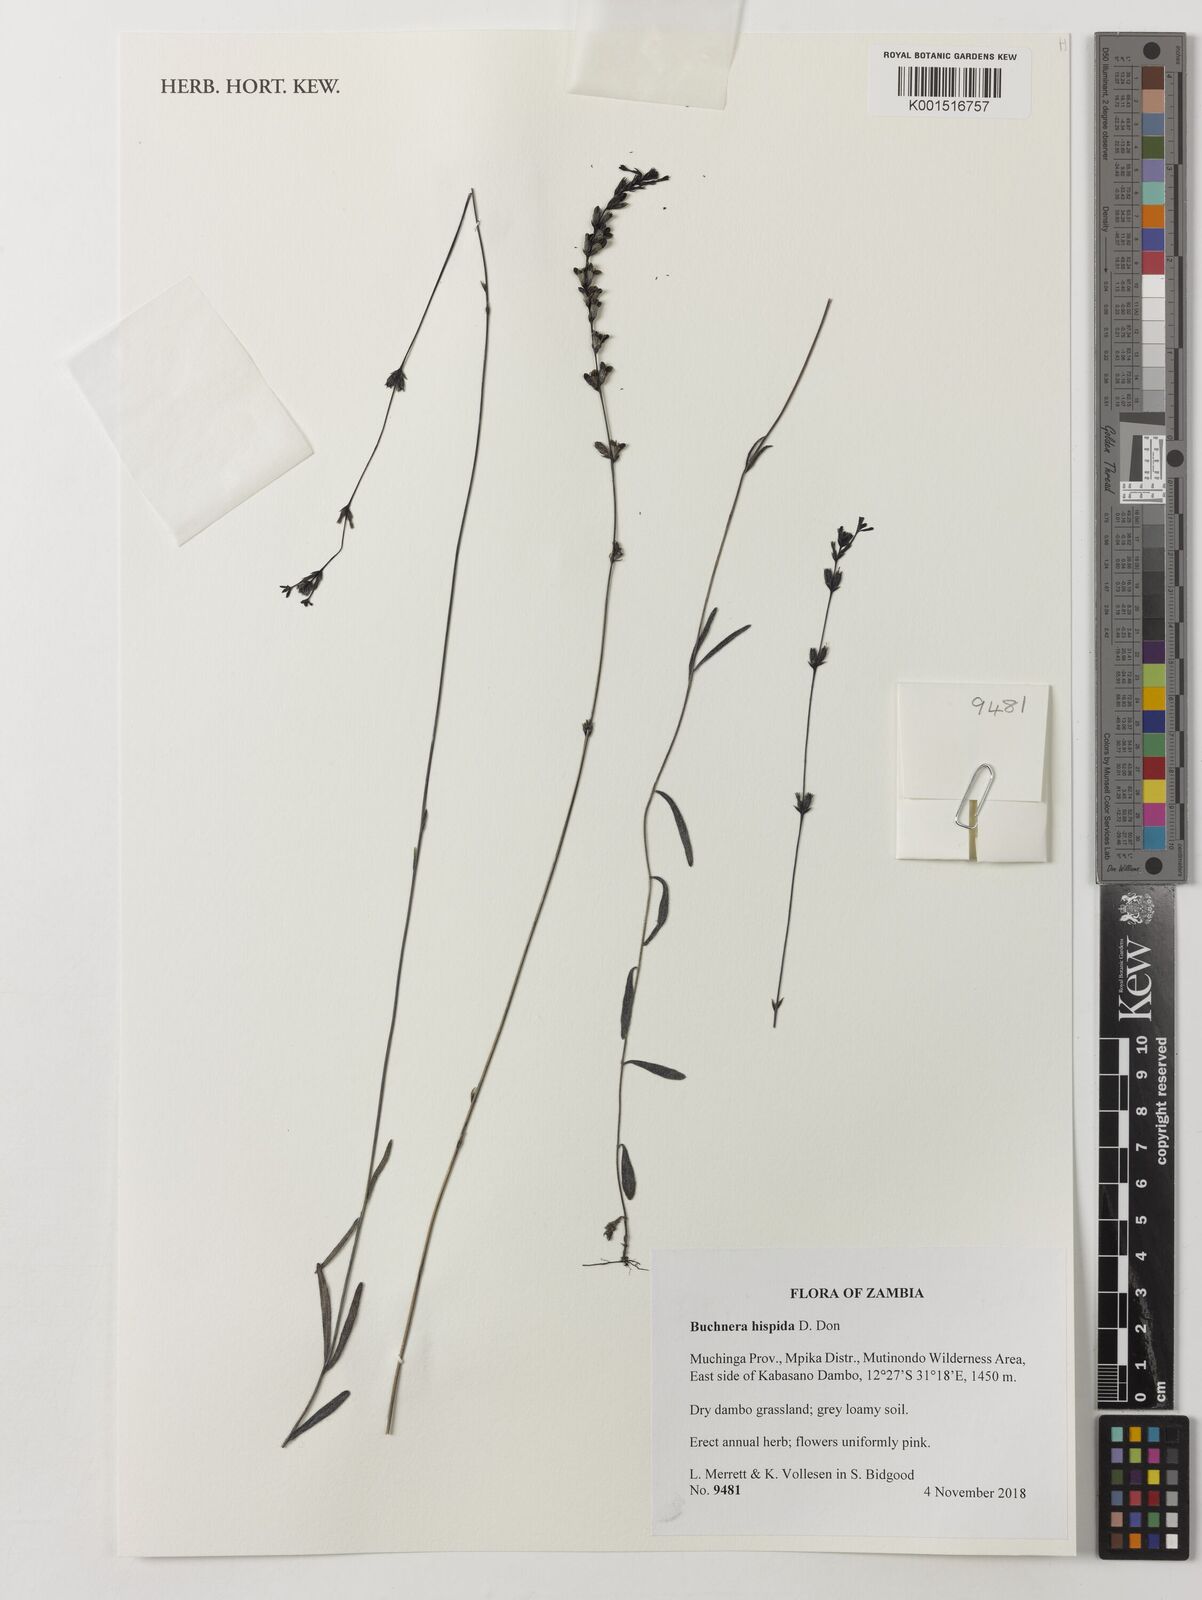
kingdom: Plantae
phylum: Tracheophyta
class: Magnoliopsida
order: Lamiales
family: Orobanchaceae
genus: Buchnera
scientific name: Buchnera hispida
